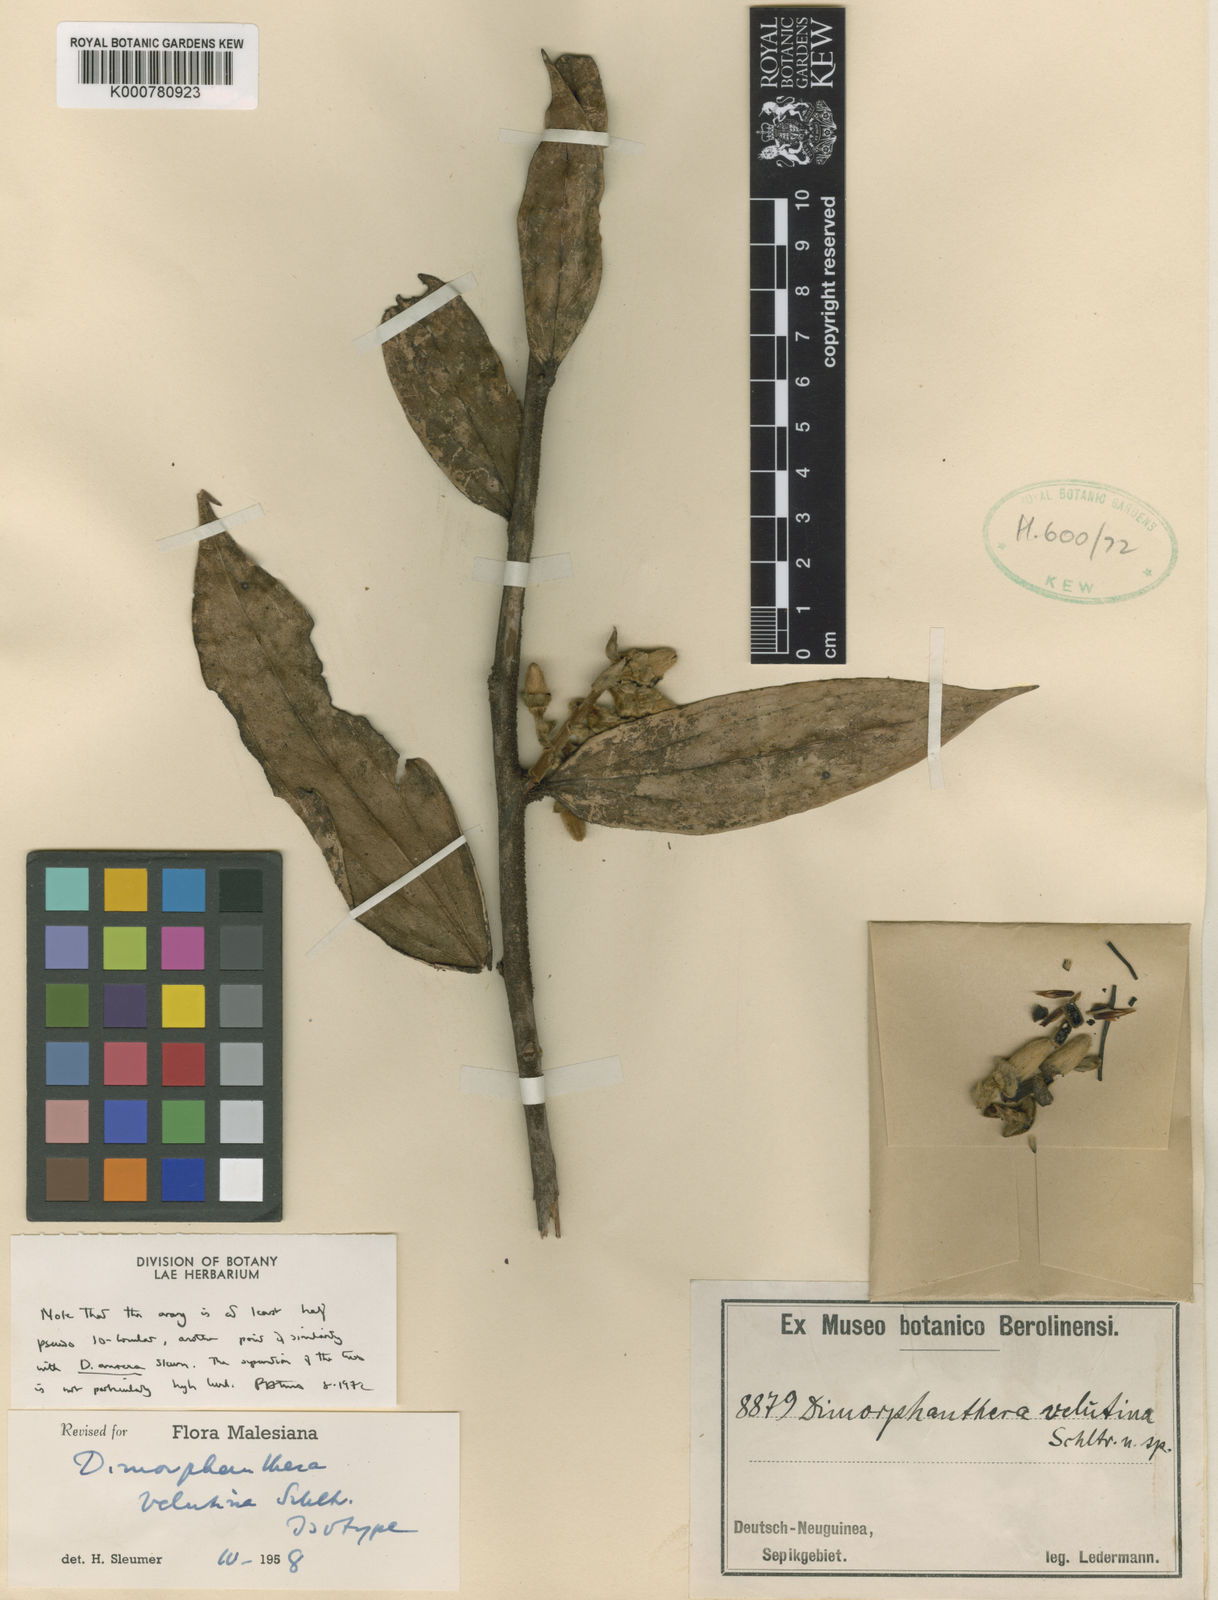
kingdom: Plantae
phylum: Tracheophyta
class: Magnoliopsida
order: Ericales
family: Ericaceae
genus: Dimorphanthera
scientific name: Dimorphanthera velutina
